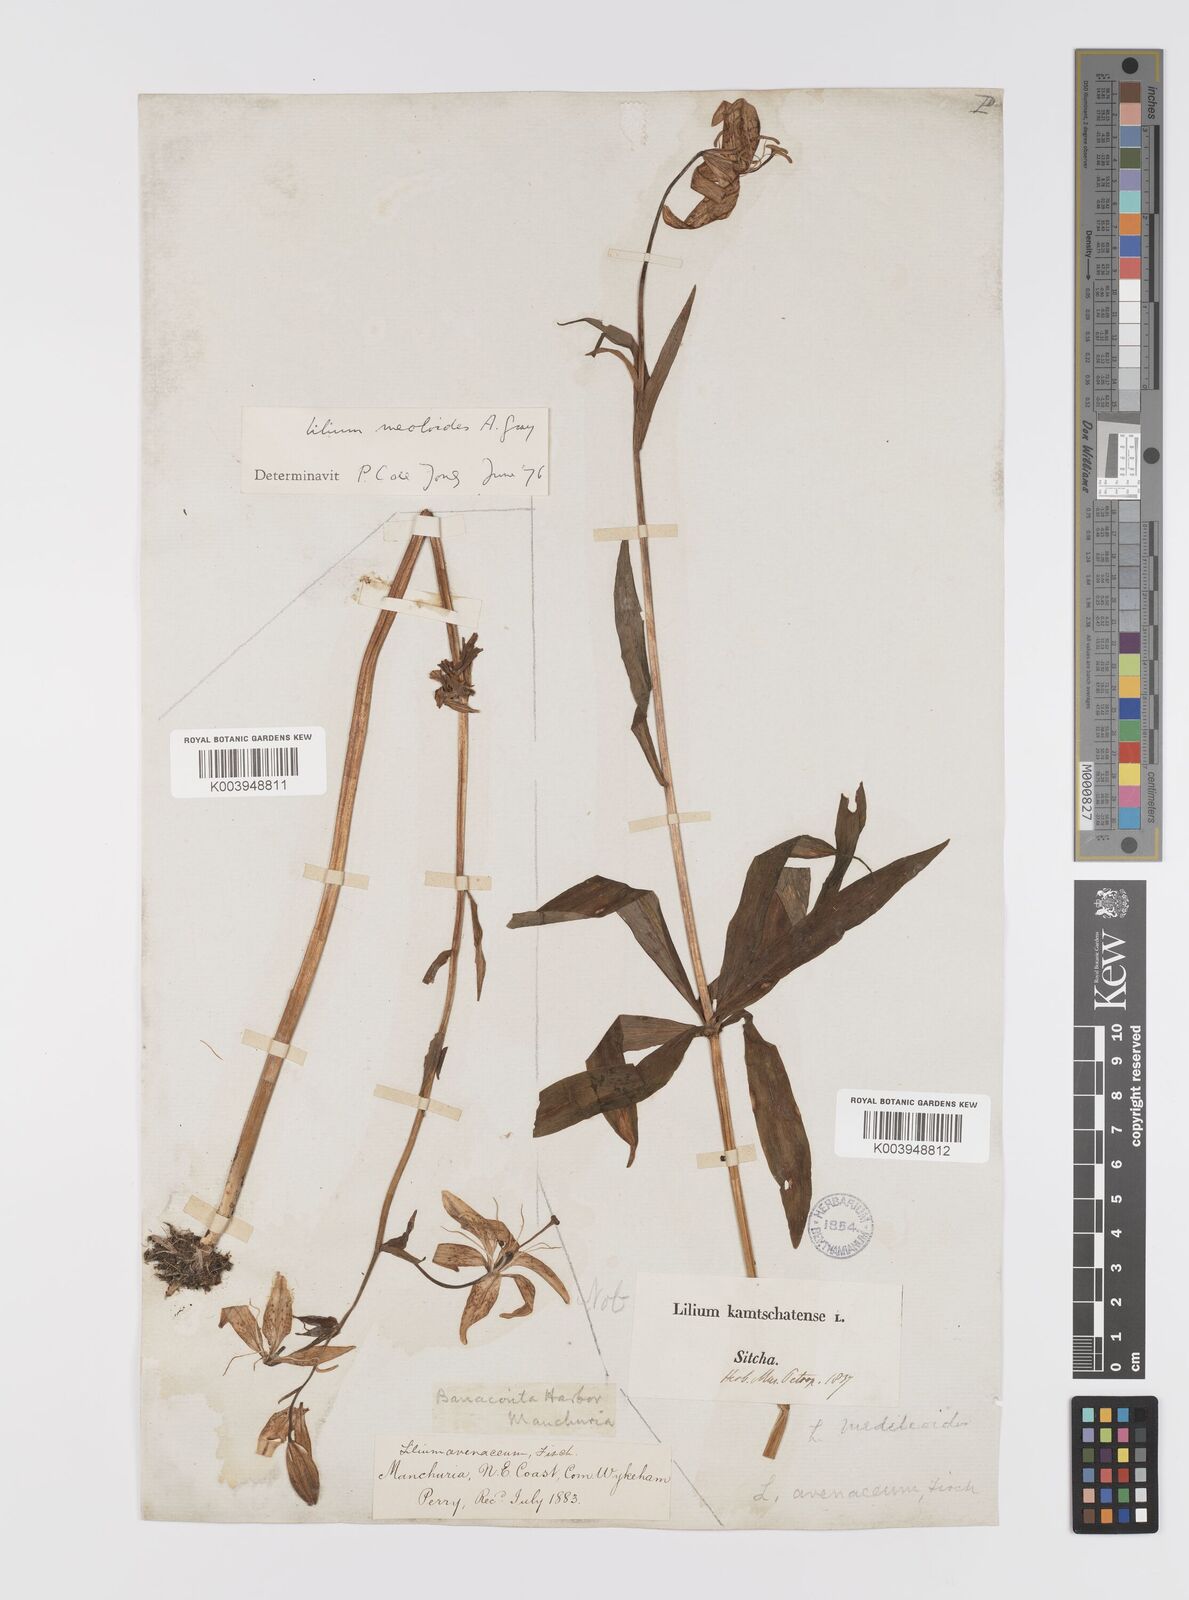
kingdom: Plantae
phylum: Tracheophyta
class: Liliopsida
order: Liliales
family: Liliaceae
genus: Lilium
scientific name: Lilium medeoloides
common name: Wheel lily
